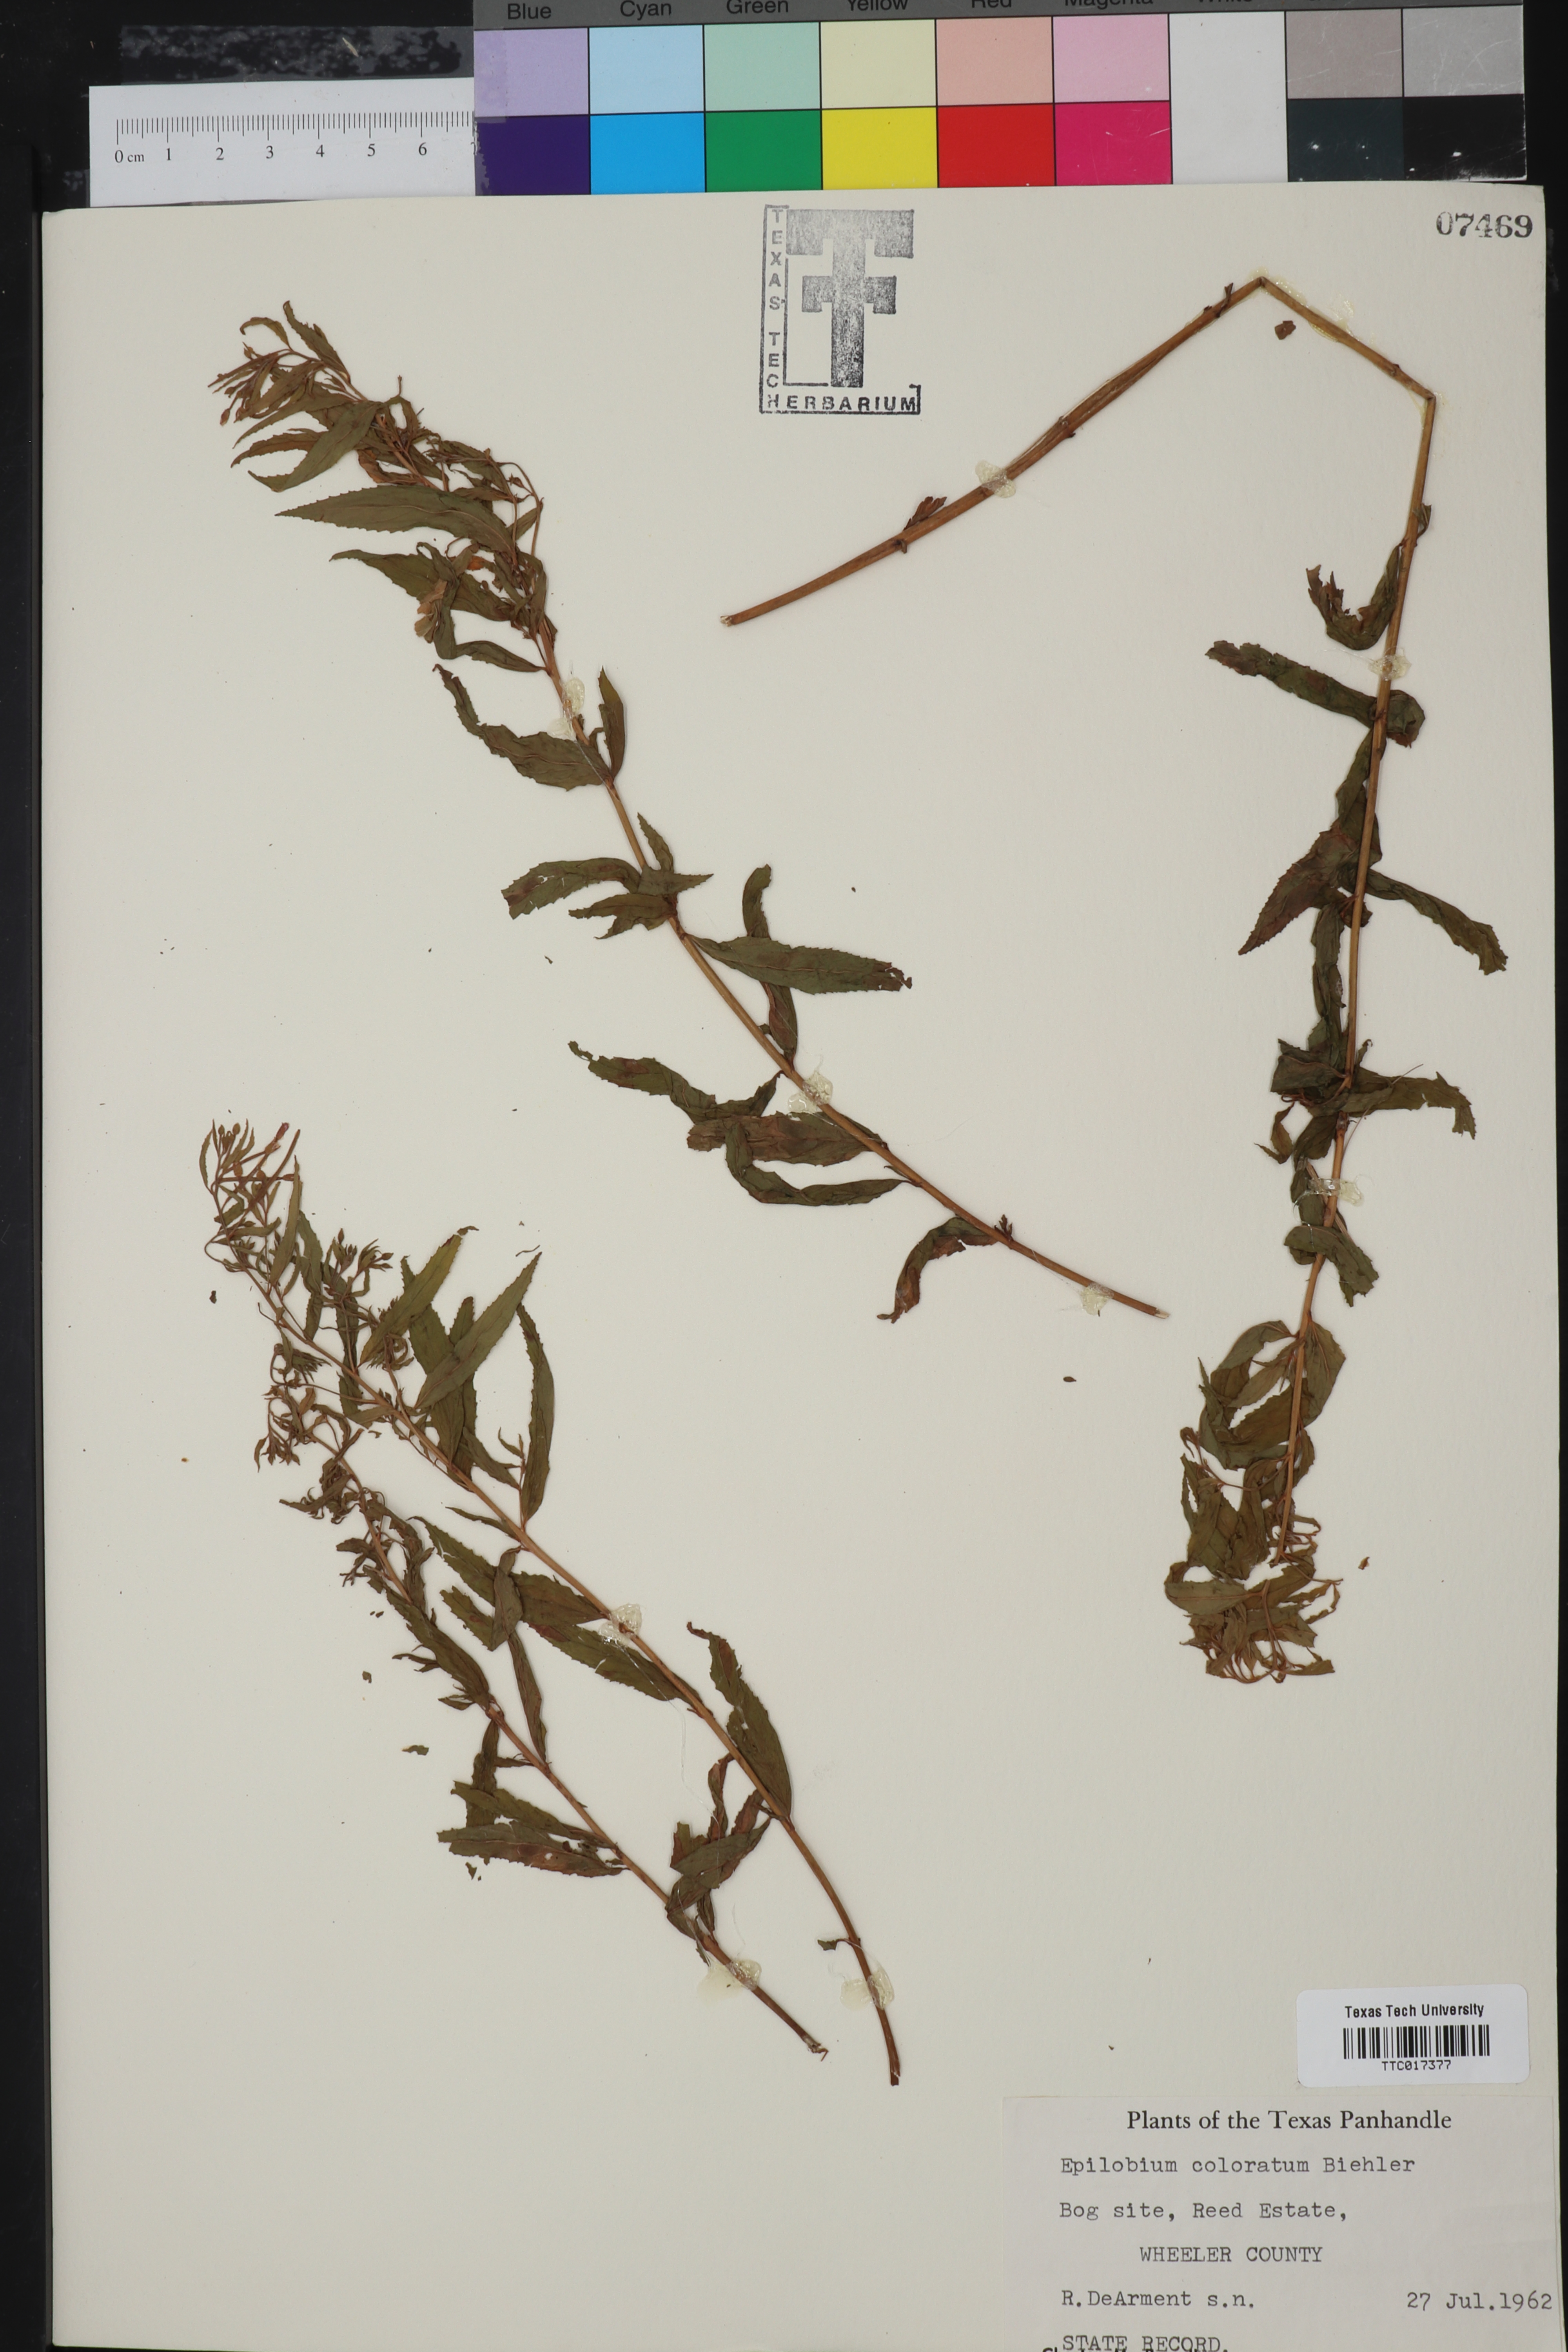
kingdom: Plantae
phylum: Tracheophyta
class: Magnoliopsida
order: Myrtales
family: Onagraceae
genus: Epilobium
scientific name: Epilobium coloratum
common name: Bronze willowherb
